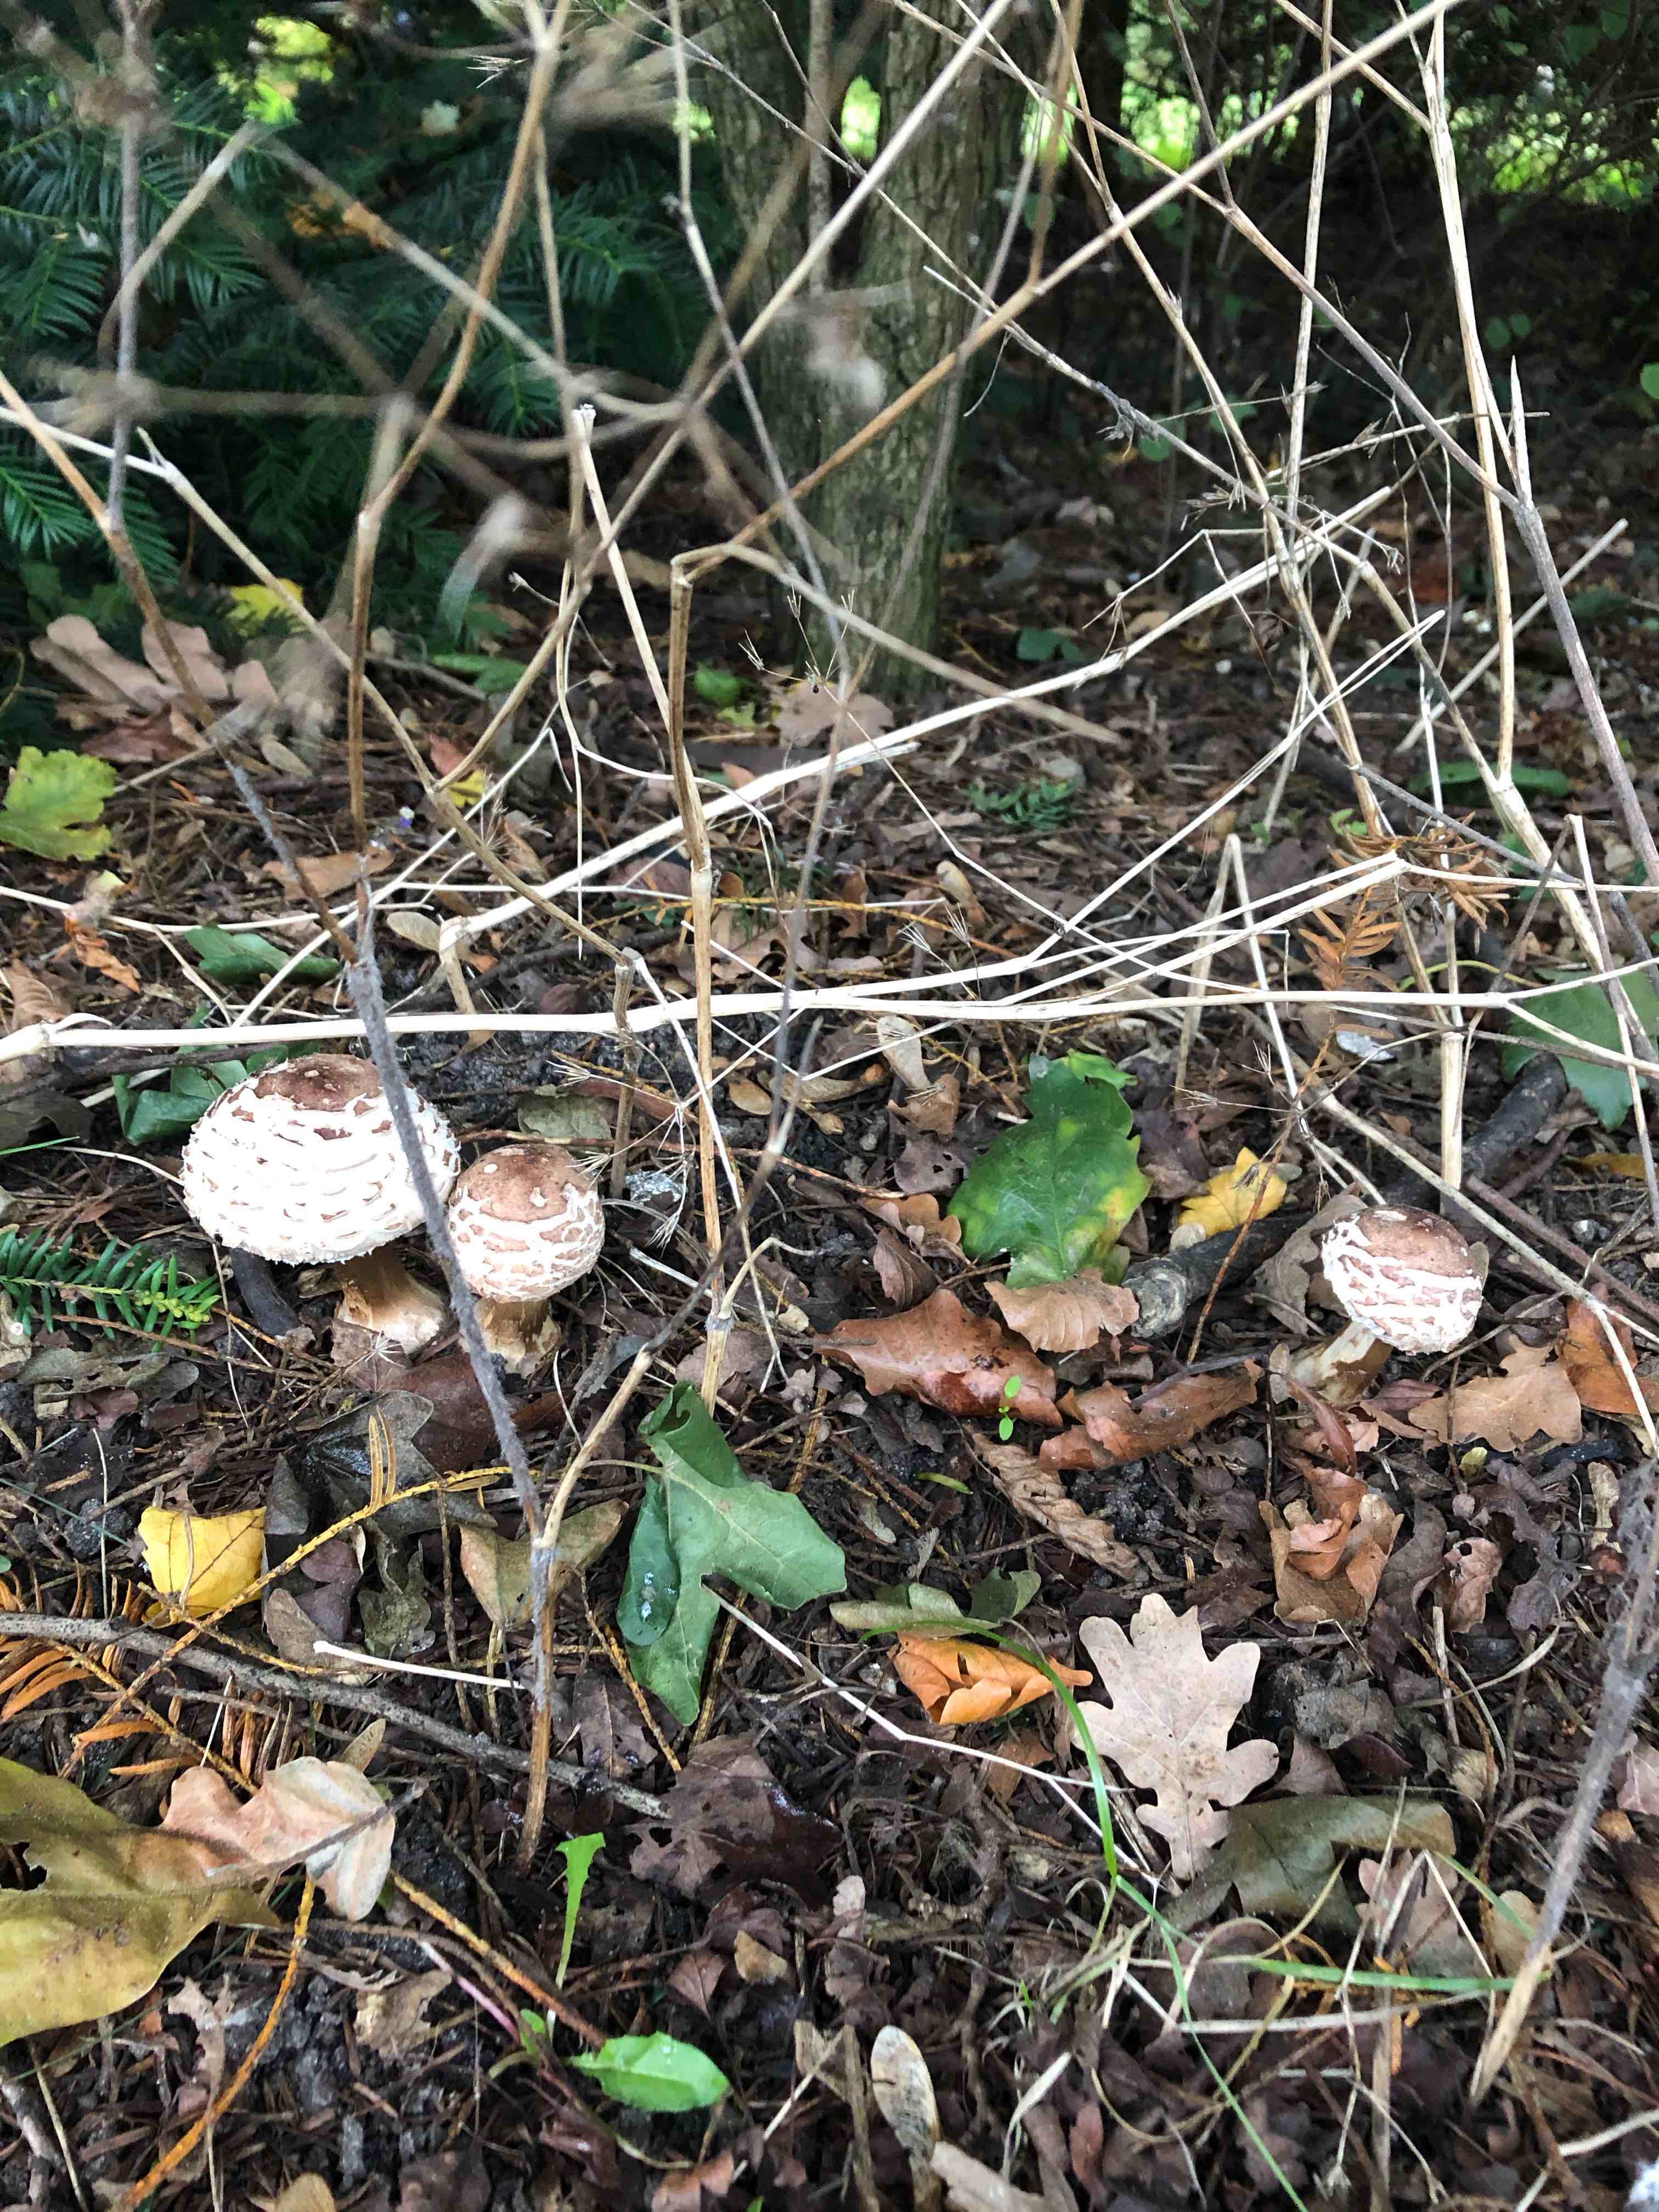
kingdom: Fungi
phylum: Basidiomycota
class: Agaricomycetes
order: Agaricales
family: Agaricaceae
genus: Chlorophyllum
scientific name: Chlorophyllum rhacodes
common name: ægte rabarberhat
